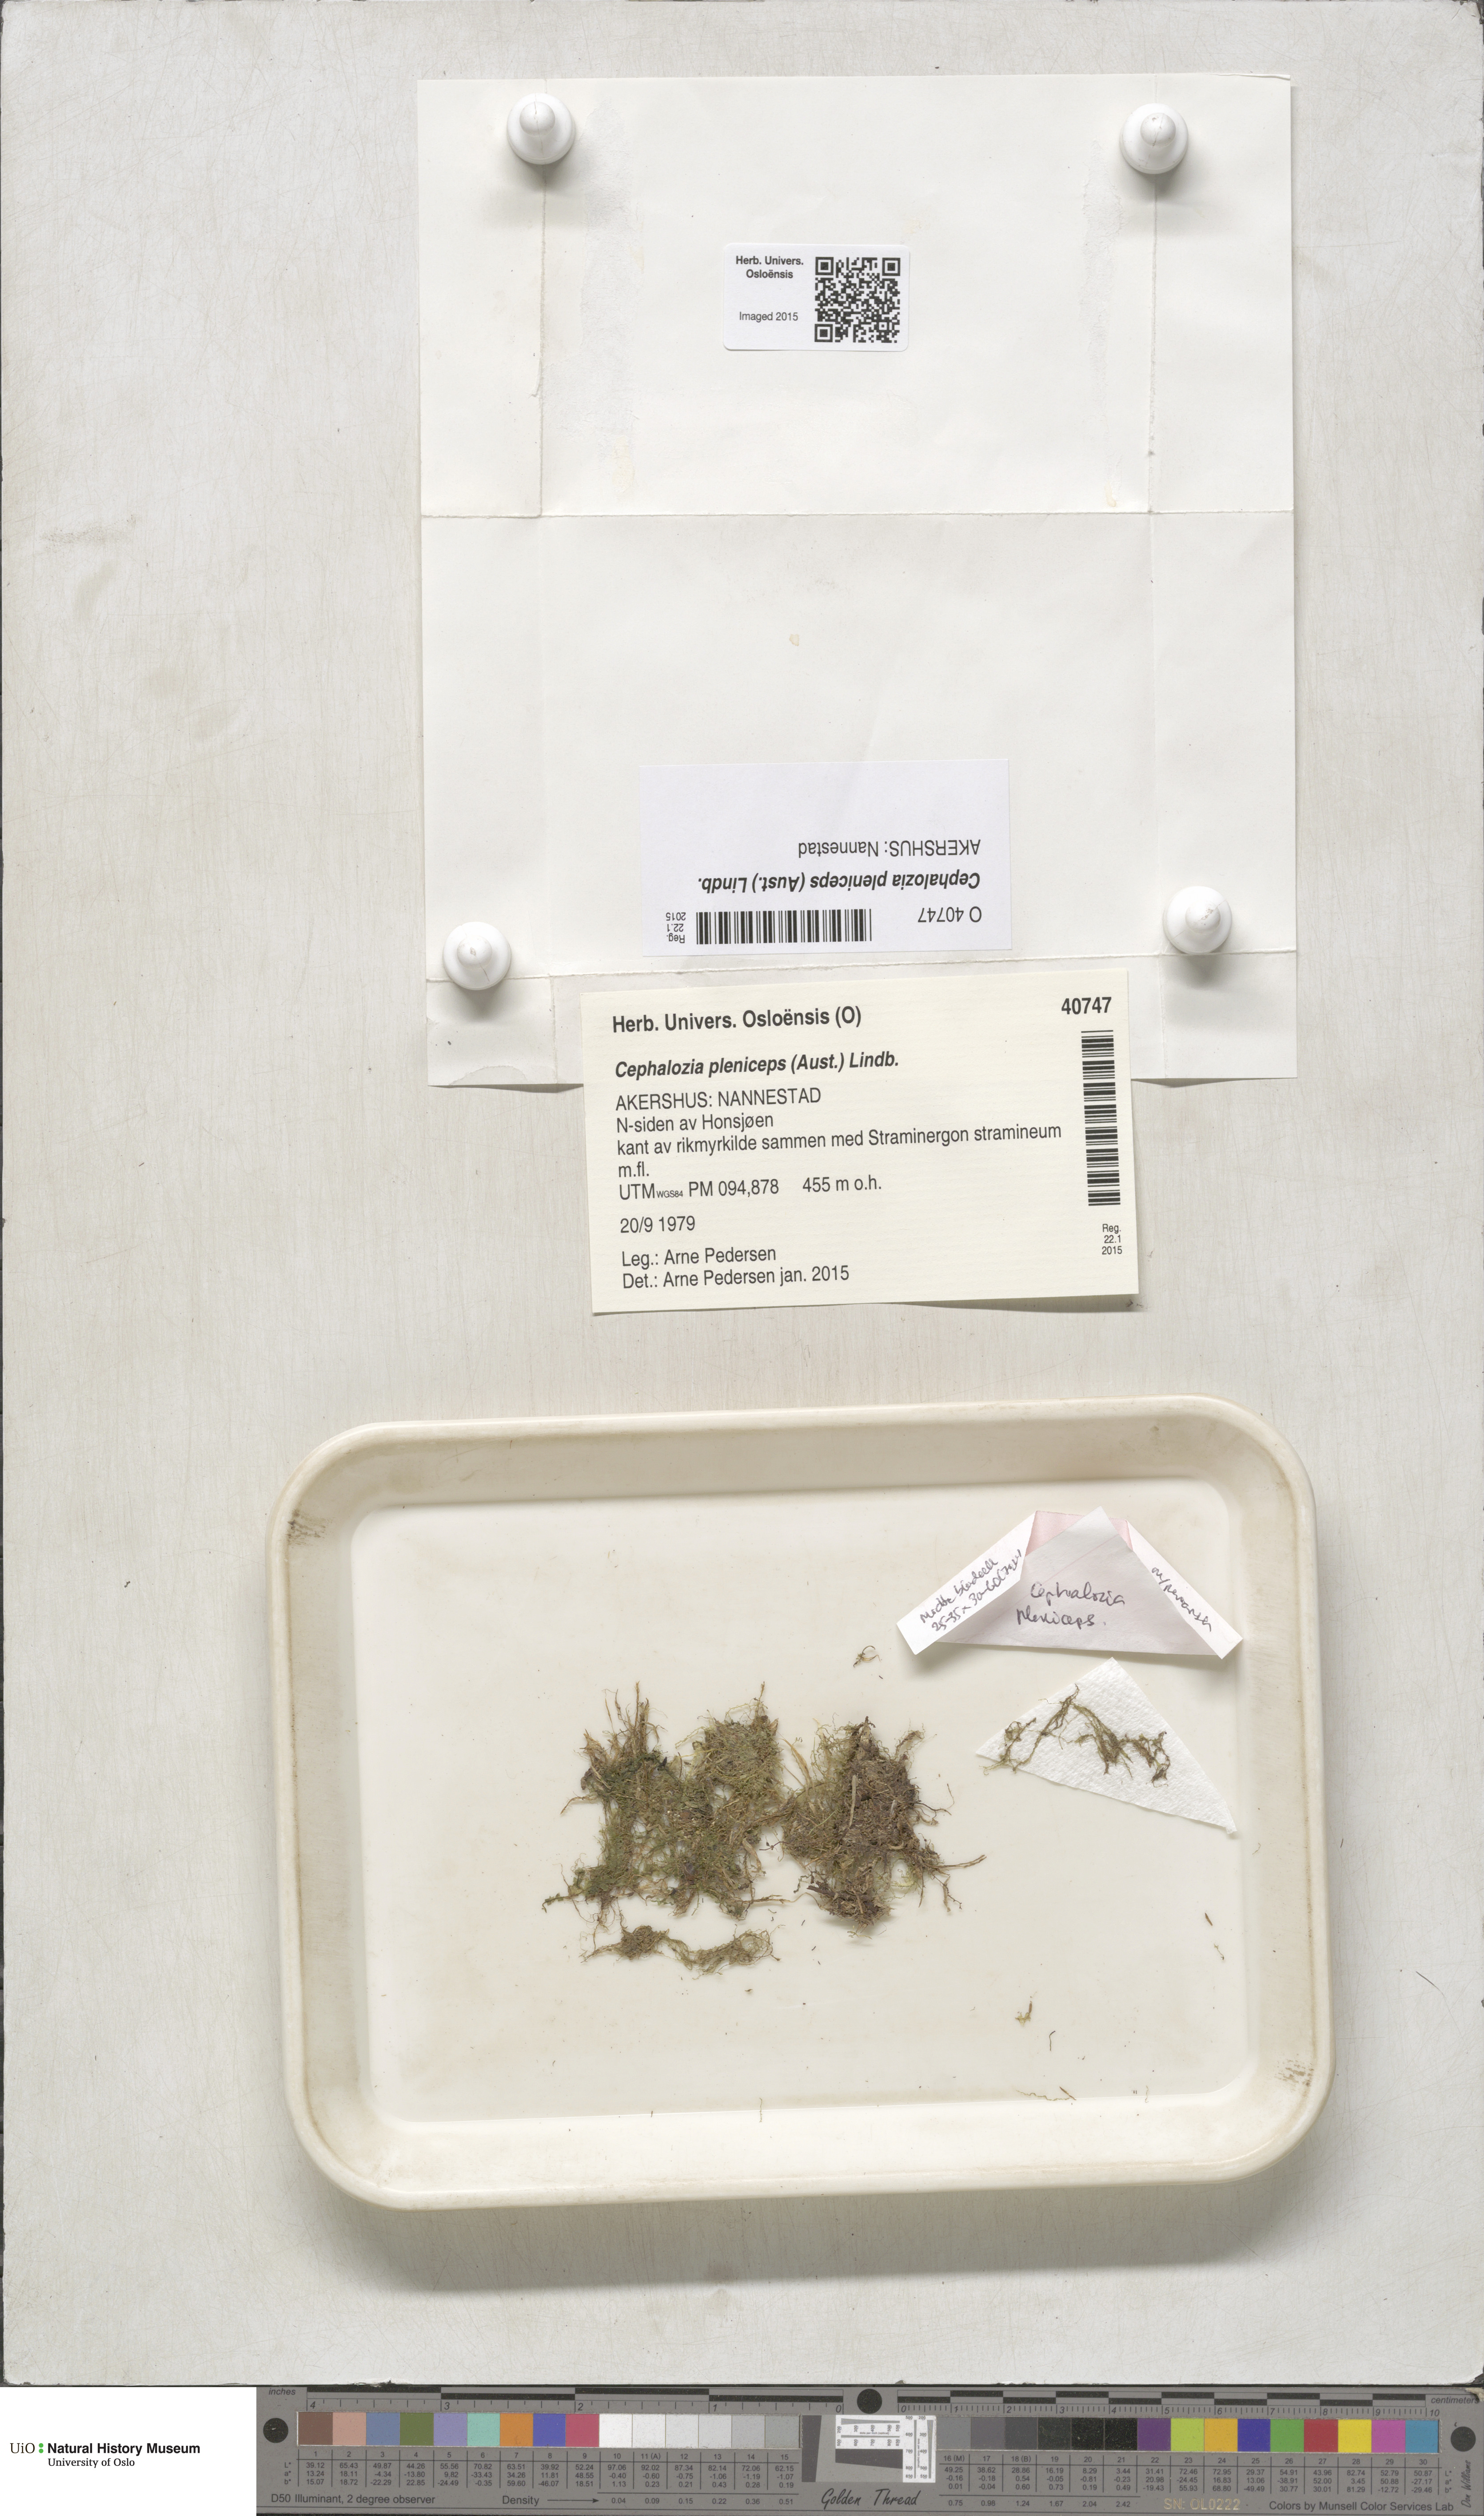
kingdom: Plantae
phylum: Marchantiophyta
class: Jungermanniopsida
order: Jungermanniales
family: Cephaloziaceae
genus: Fuscocephaloziopsis
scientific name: Fuscocephaloziopsis pleniceps
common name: Blunt pincerwort
